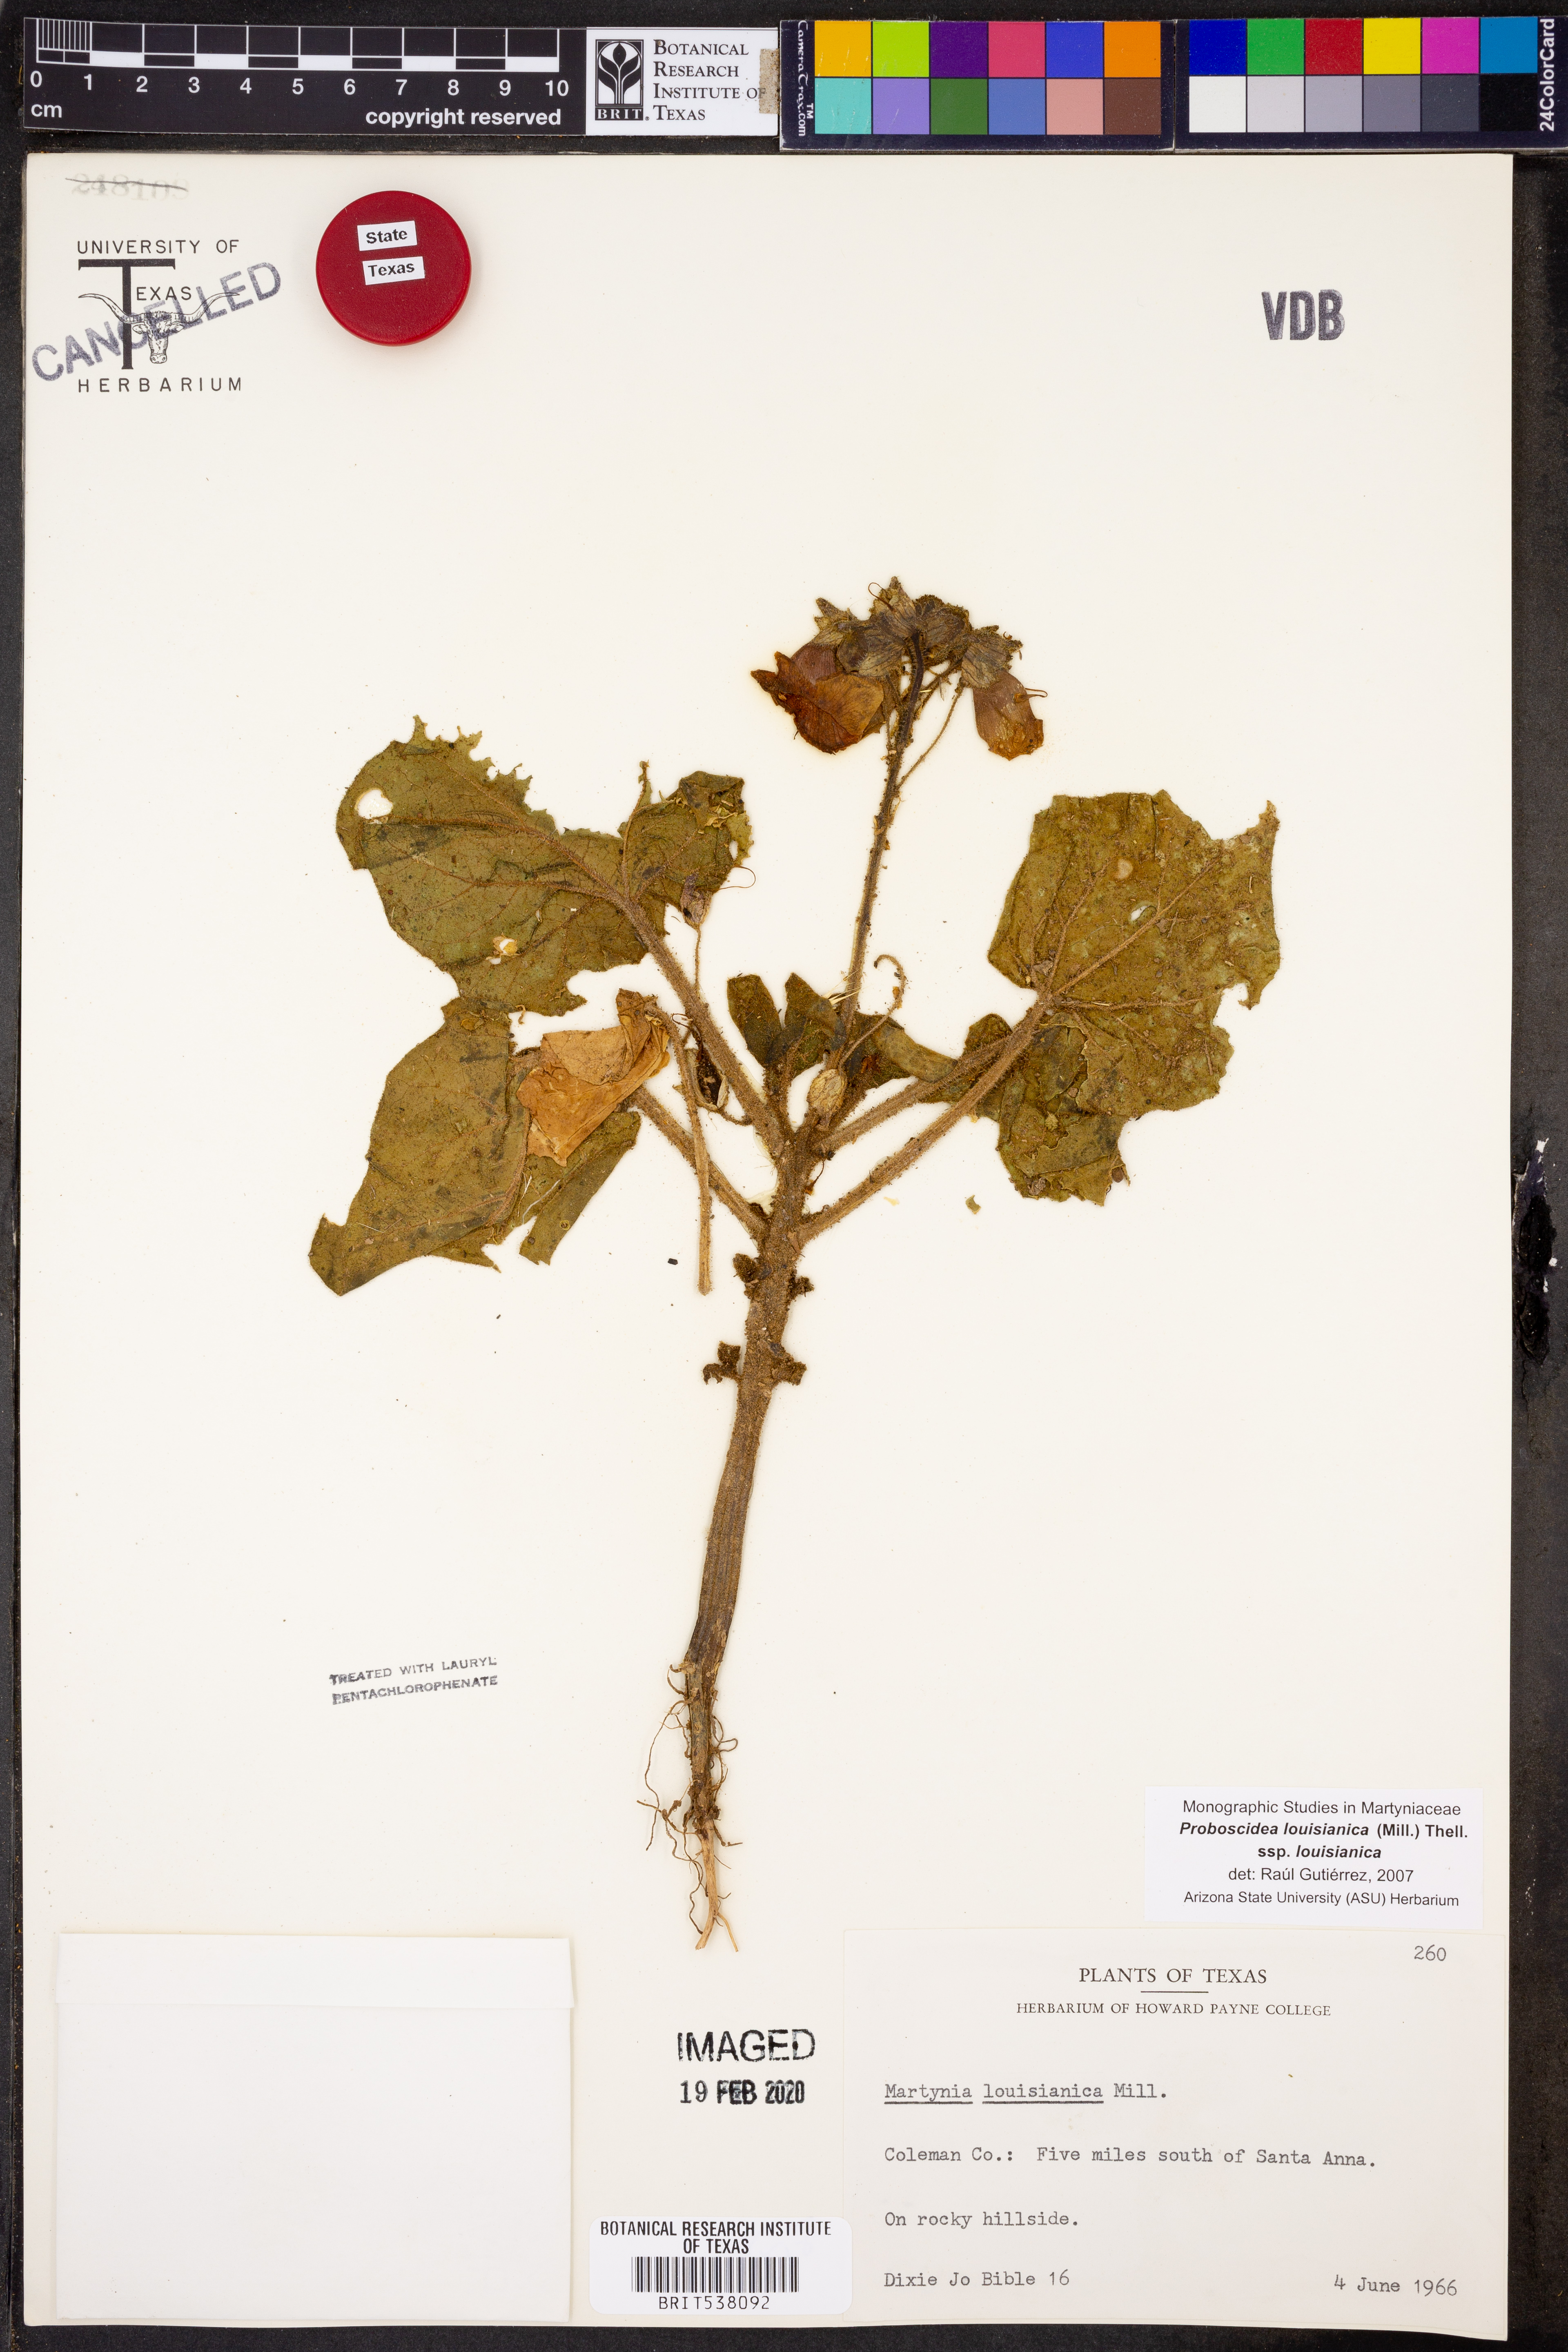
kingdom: Plantae
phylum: Tracheophyta
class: Magnoliopsida
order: Lamiales
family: Martyniaceae
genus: Proboscidea
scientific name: Proboscidea louisianica
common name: Elephant tusks
